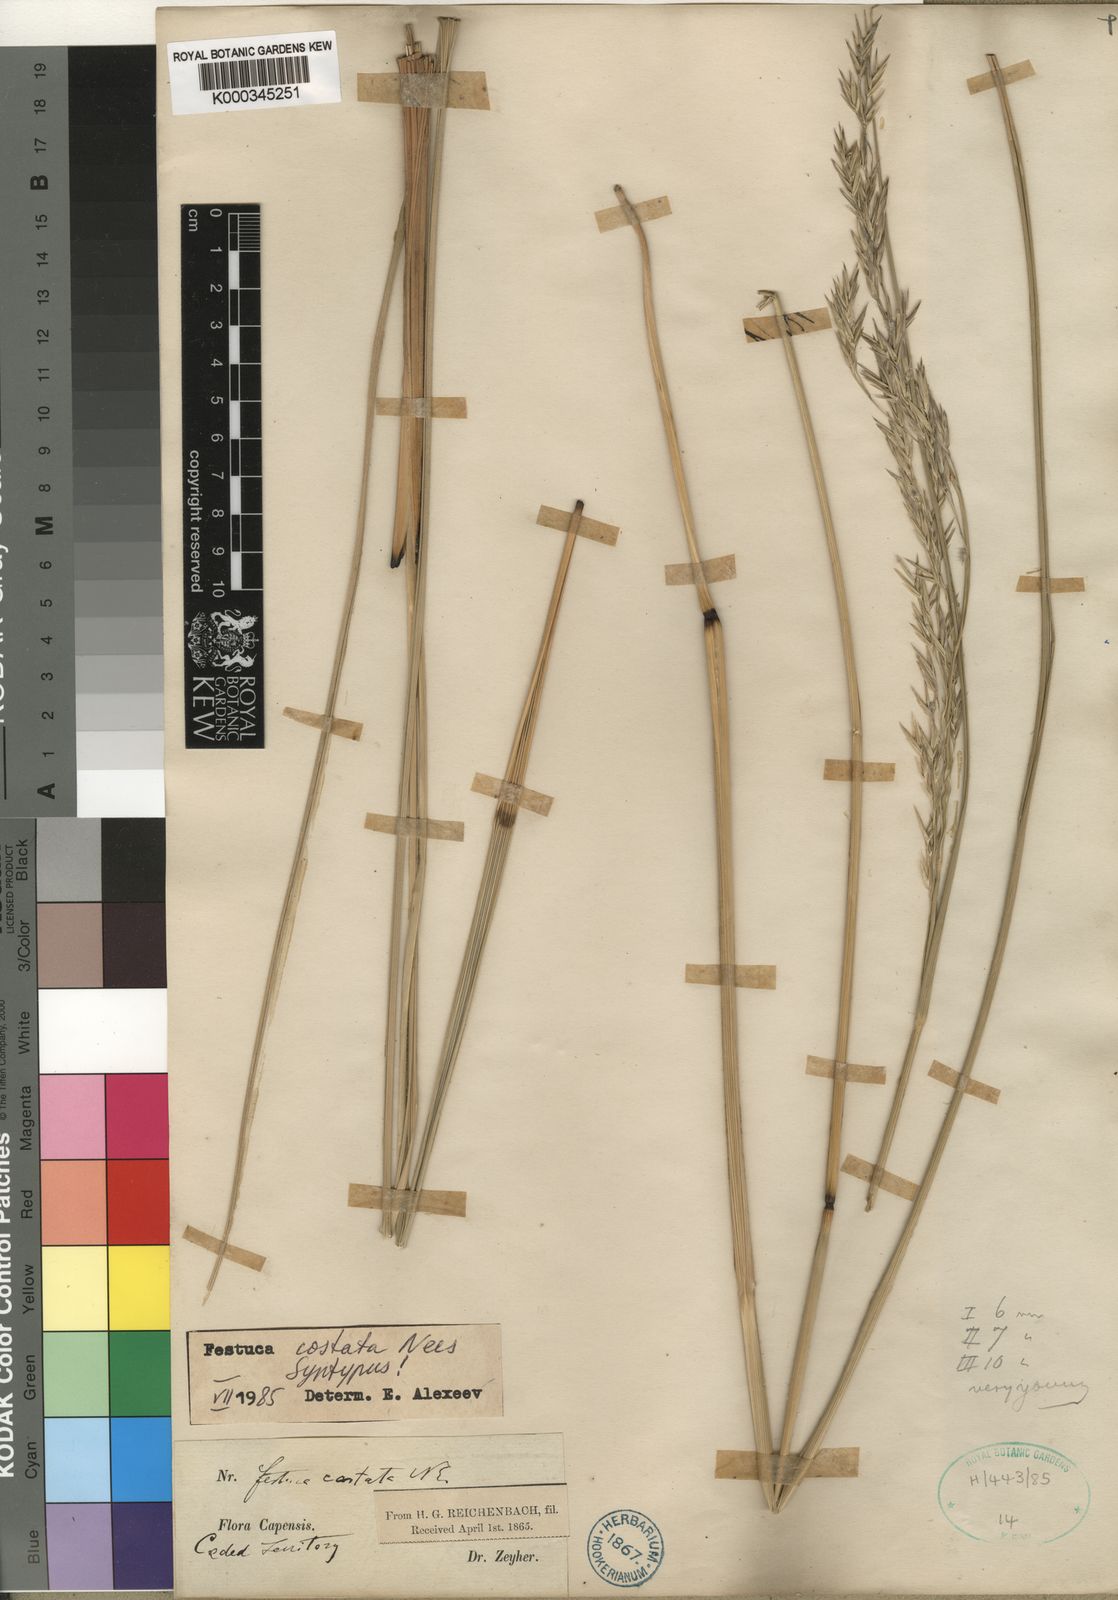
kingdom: Plantae
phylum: Tracheophyta
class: Liliopsida
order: Poales
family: Poaceae
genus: Festuca
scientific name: Festuca costata
